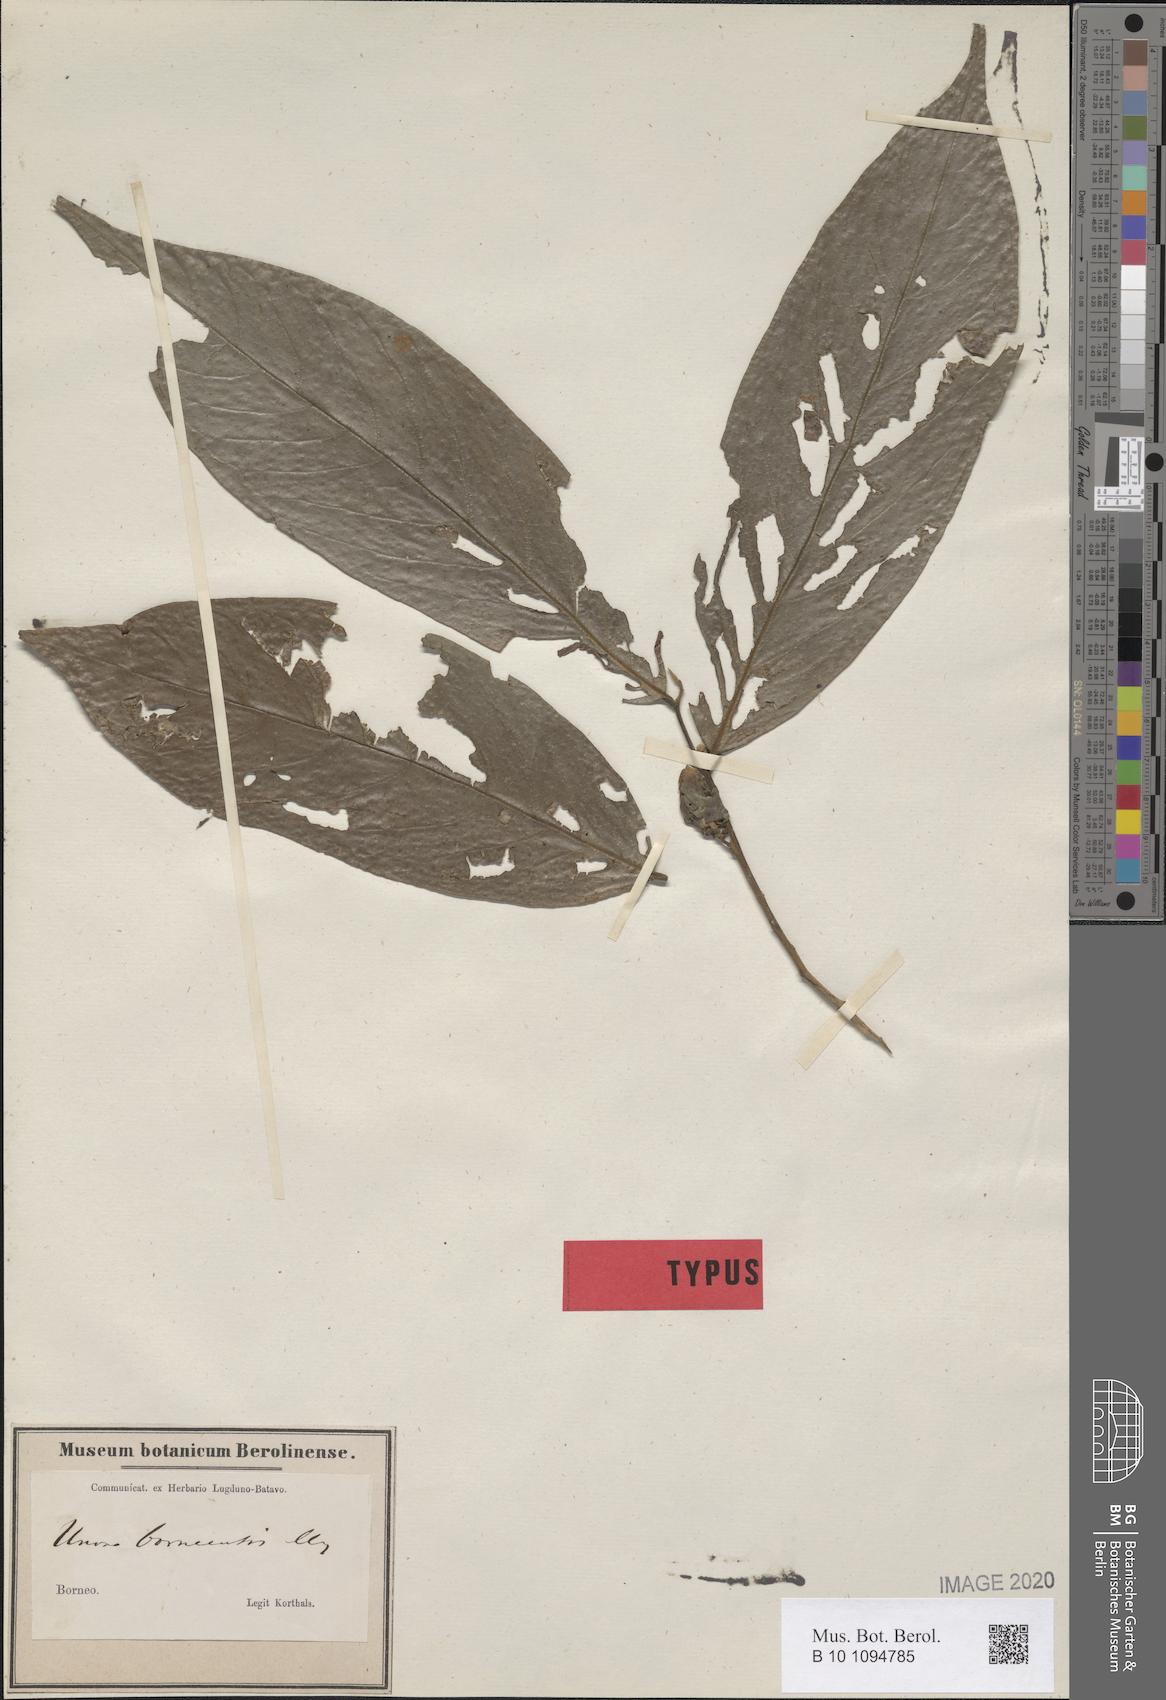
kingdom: Plantae
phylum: Tracheophyta
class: Magnoliopsida
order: Magnoliales
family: Annonaceae
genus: Hubera
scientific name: Hubera rumphii
